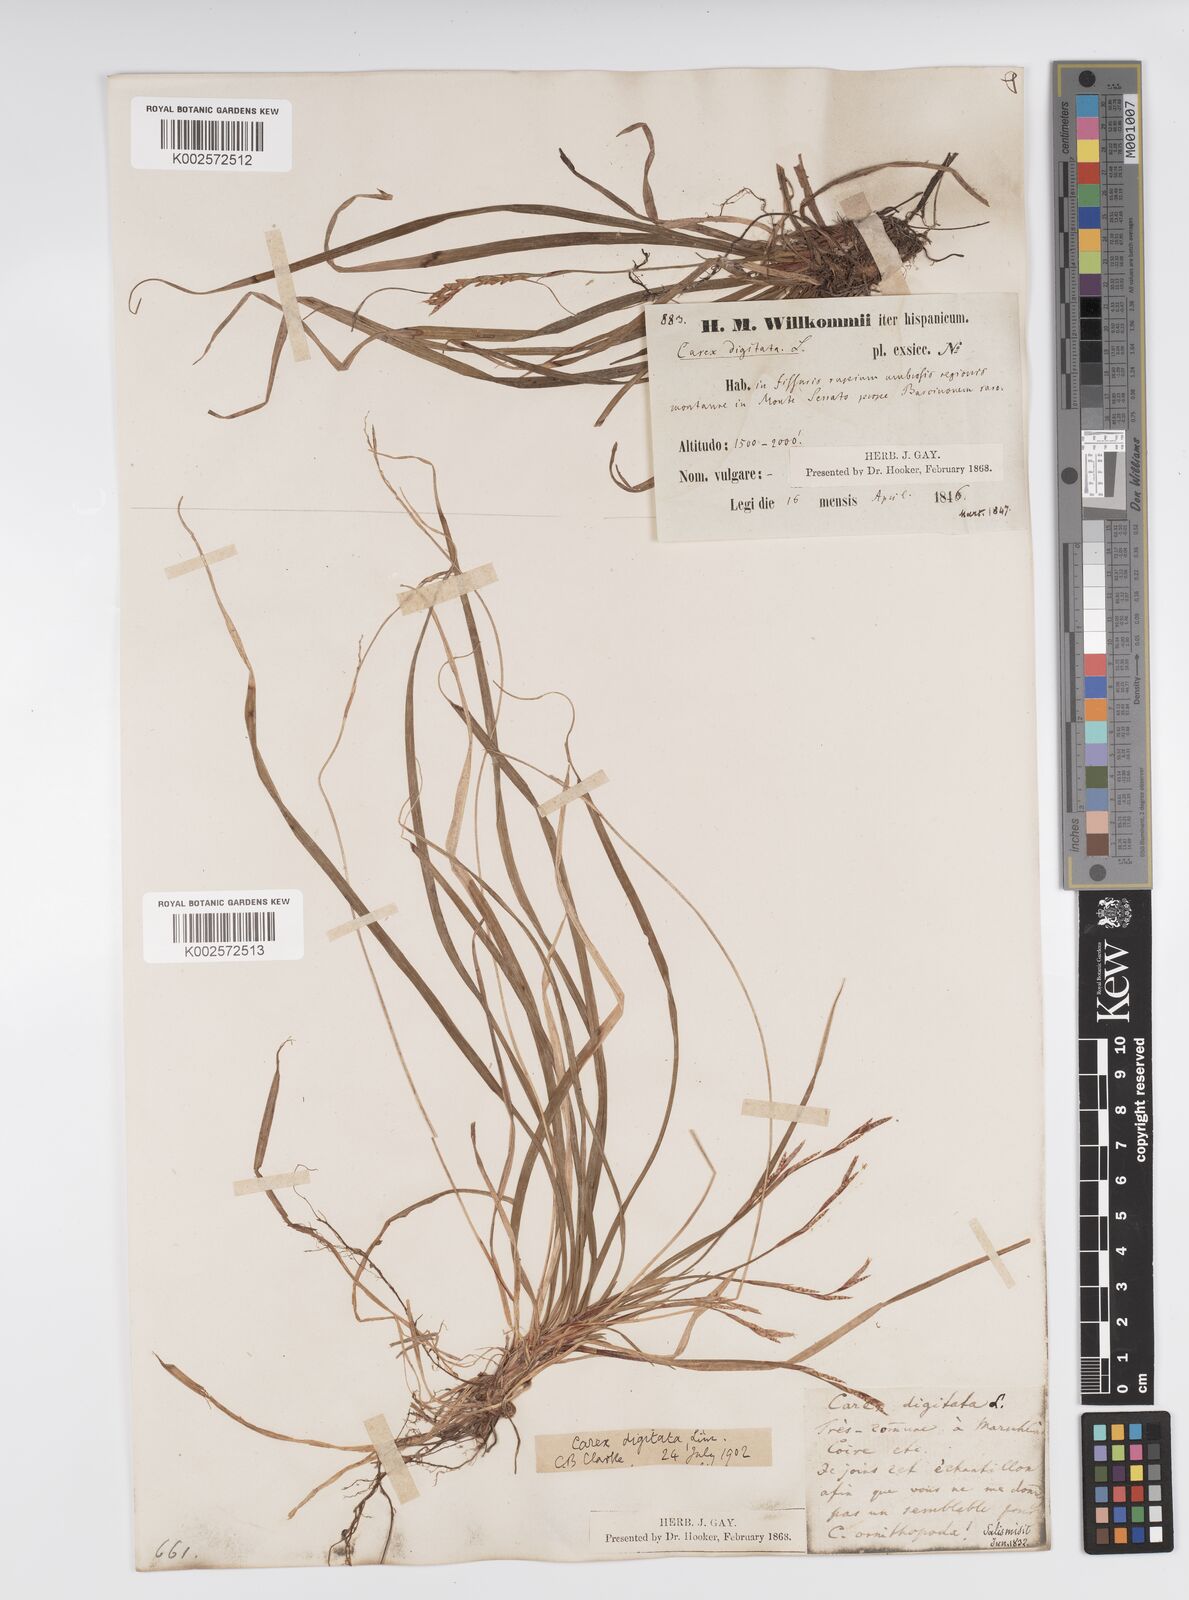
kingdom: Plantae
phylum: Tracheophyta
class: Liliopsida
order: Poales
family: Cyperaceae
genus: Carex
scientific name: Carex digitata
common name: Fingered sedge
